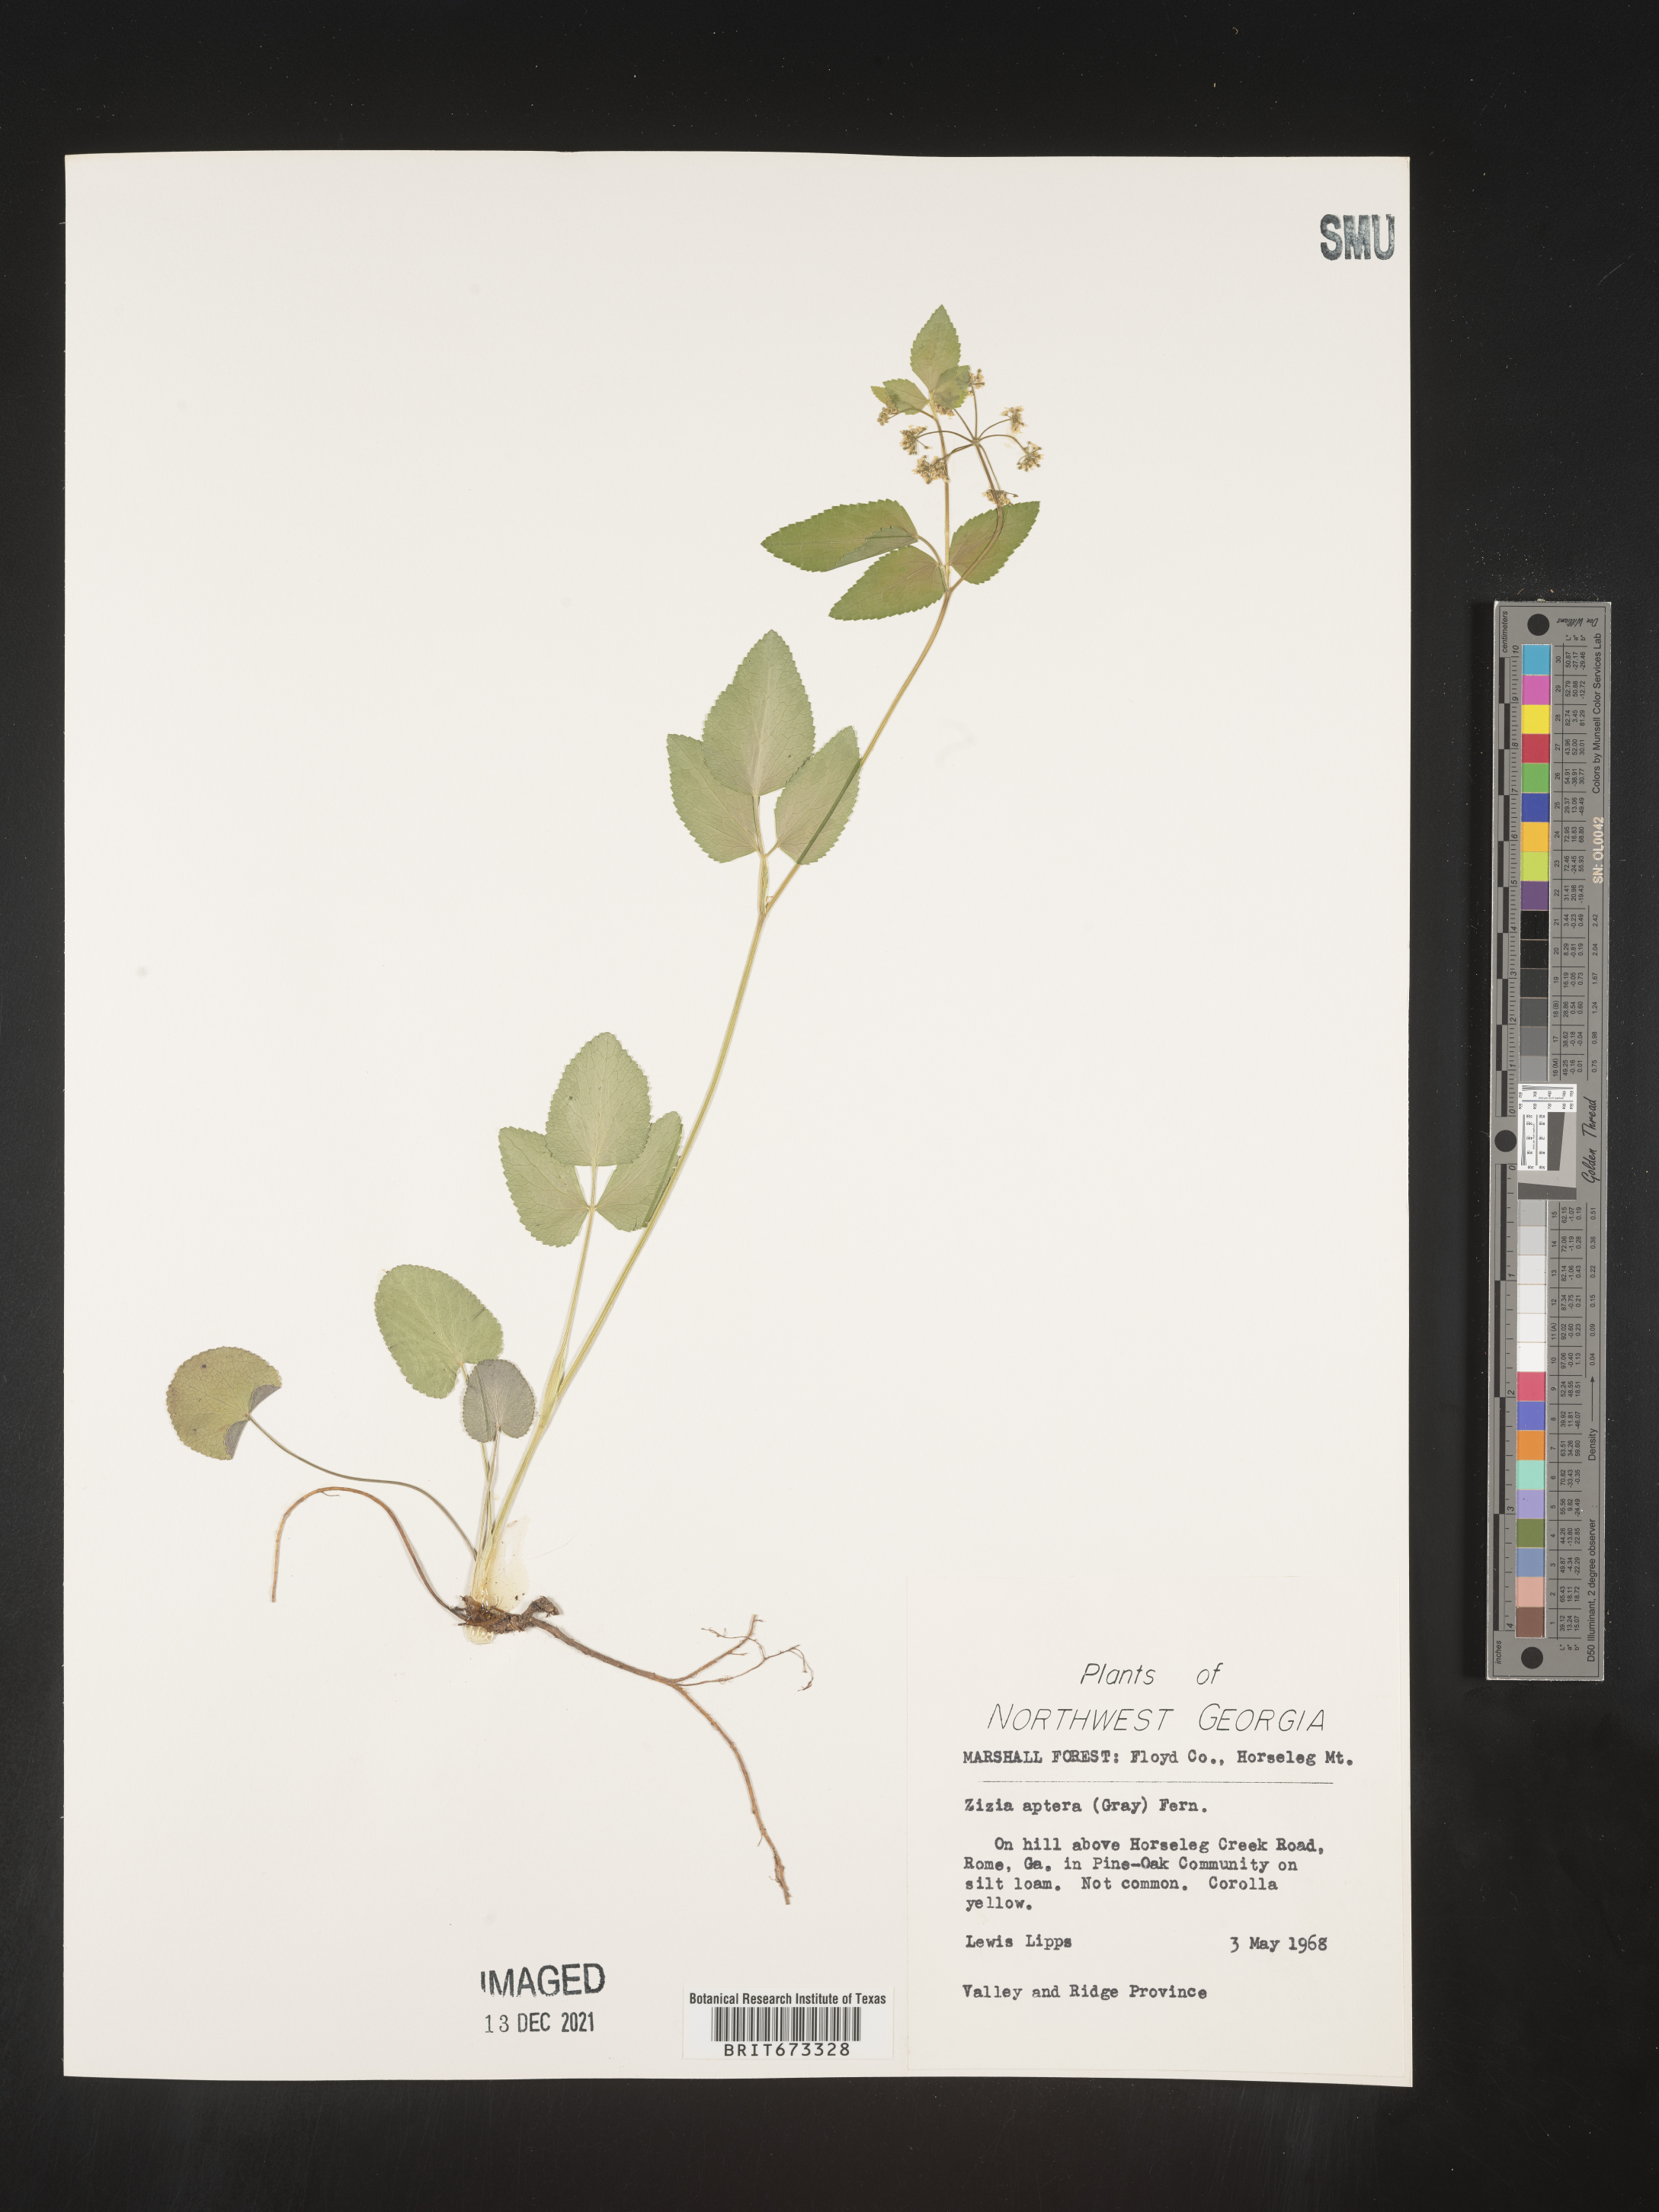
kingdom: Plantae
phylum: Tracheophyta
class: Magnoliopsida
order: Apiales
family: Apiaceae
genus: Zizia
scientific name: Zizia aptera
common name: Heart-leaved alexanders
